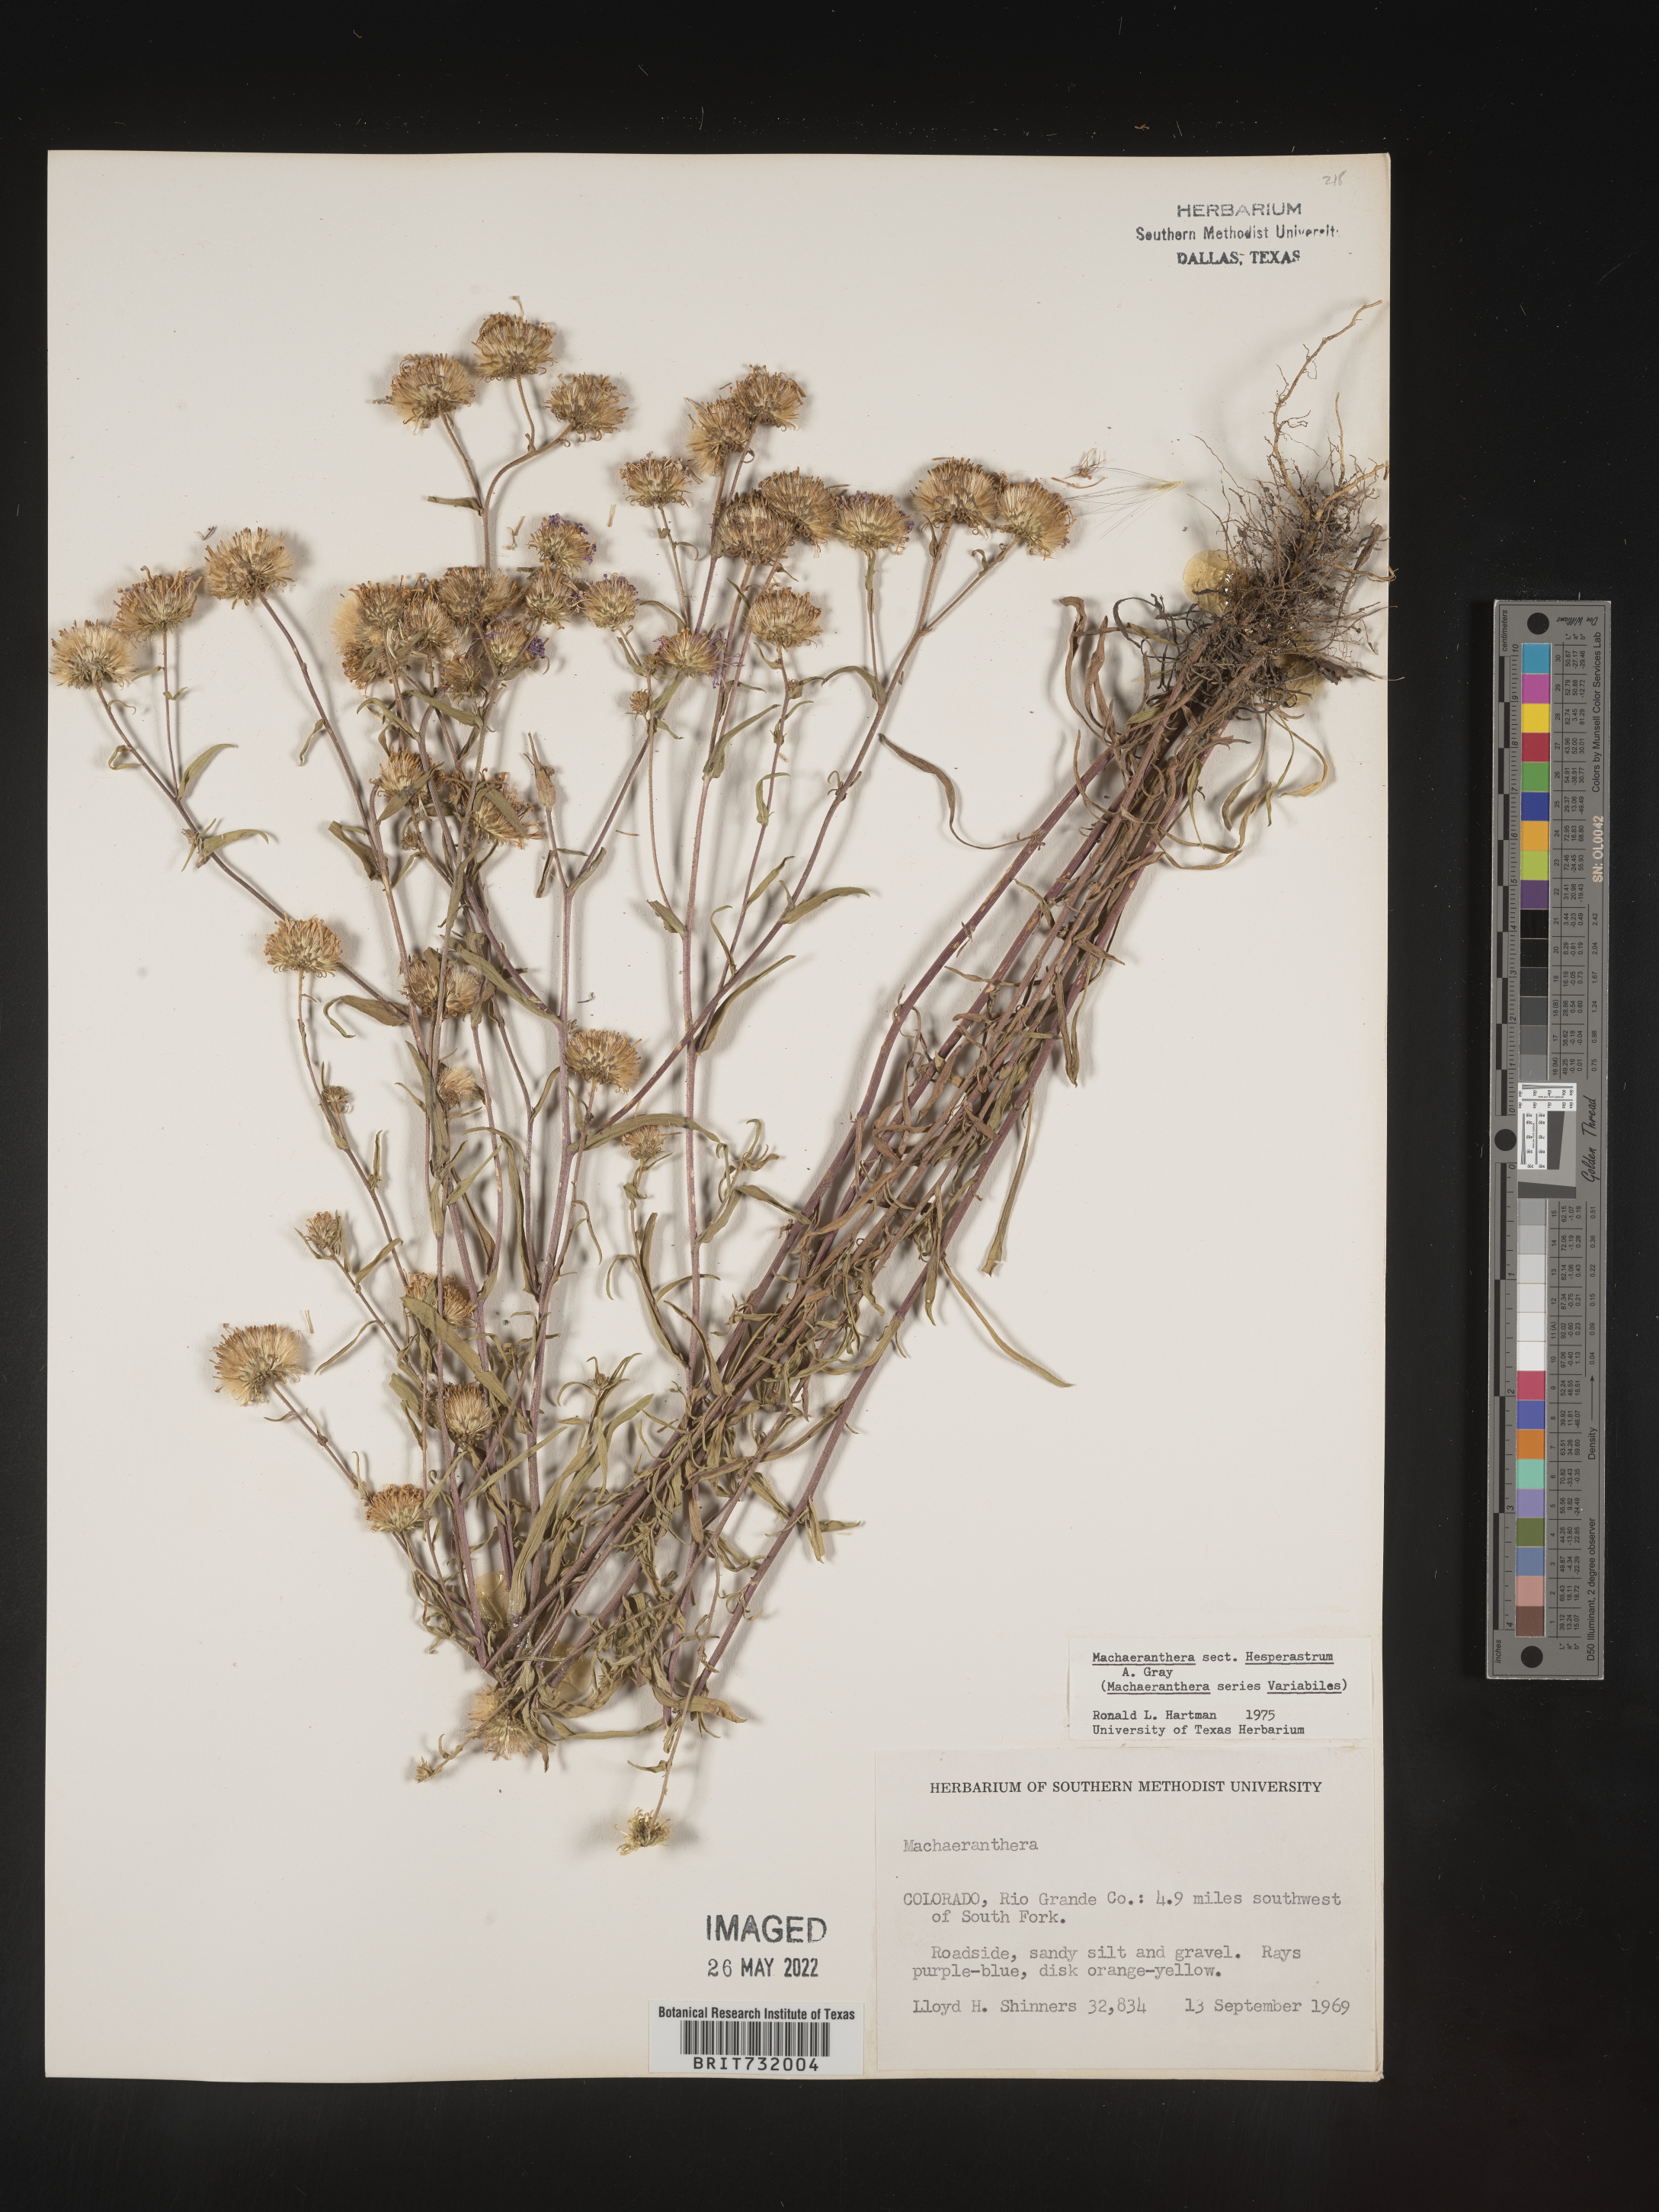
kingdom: Plantae
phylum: Tracheophyta
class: Magnoliopsida
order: Asterales
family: Asteraceae
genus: Machaeranthera
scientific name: Machaeranthera
